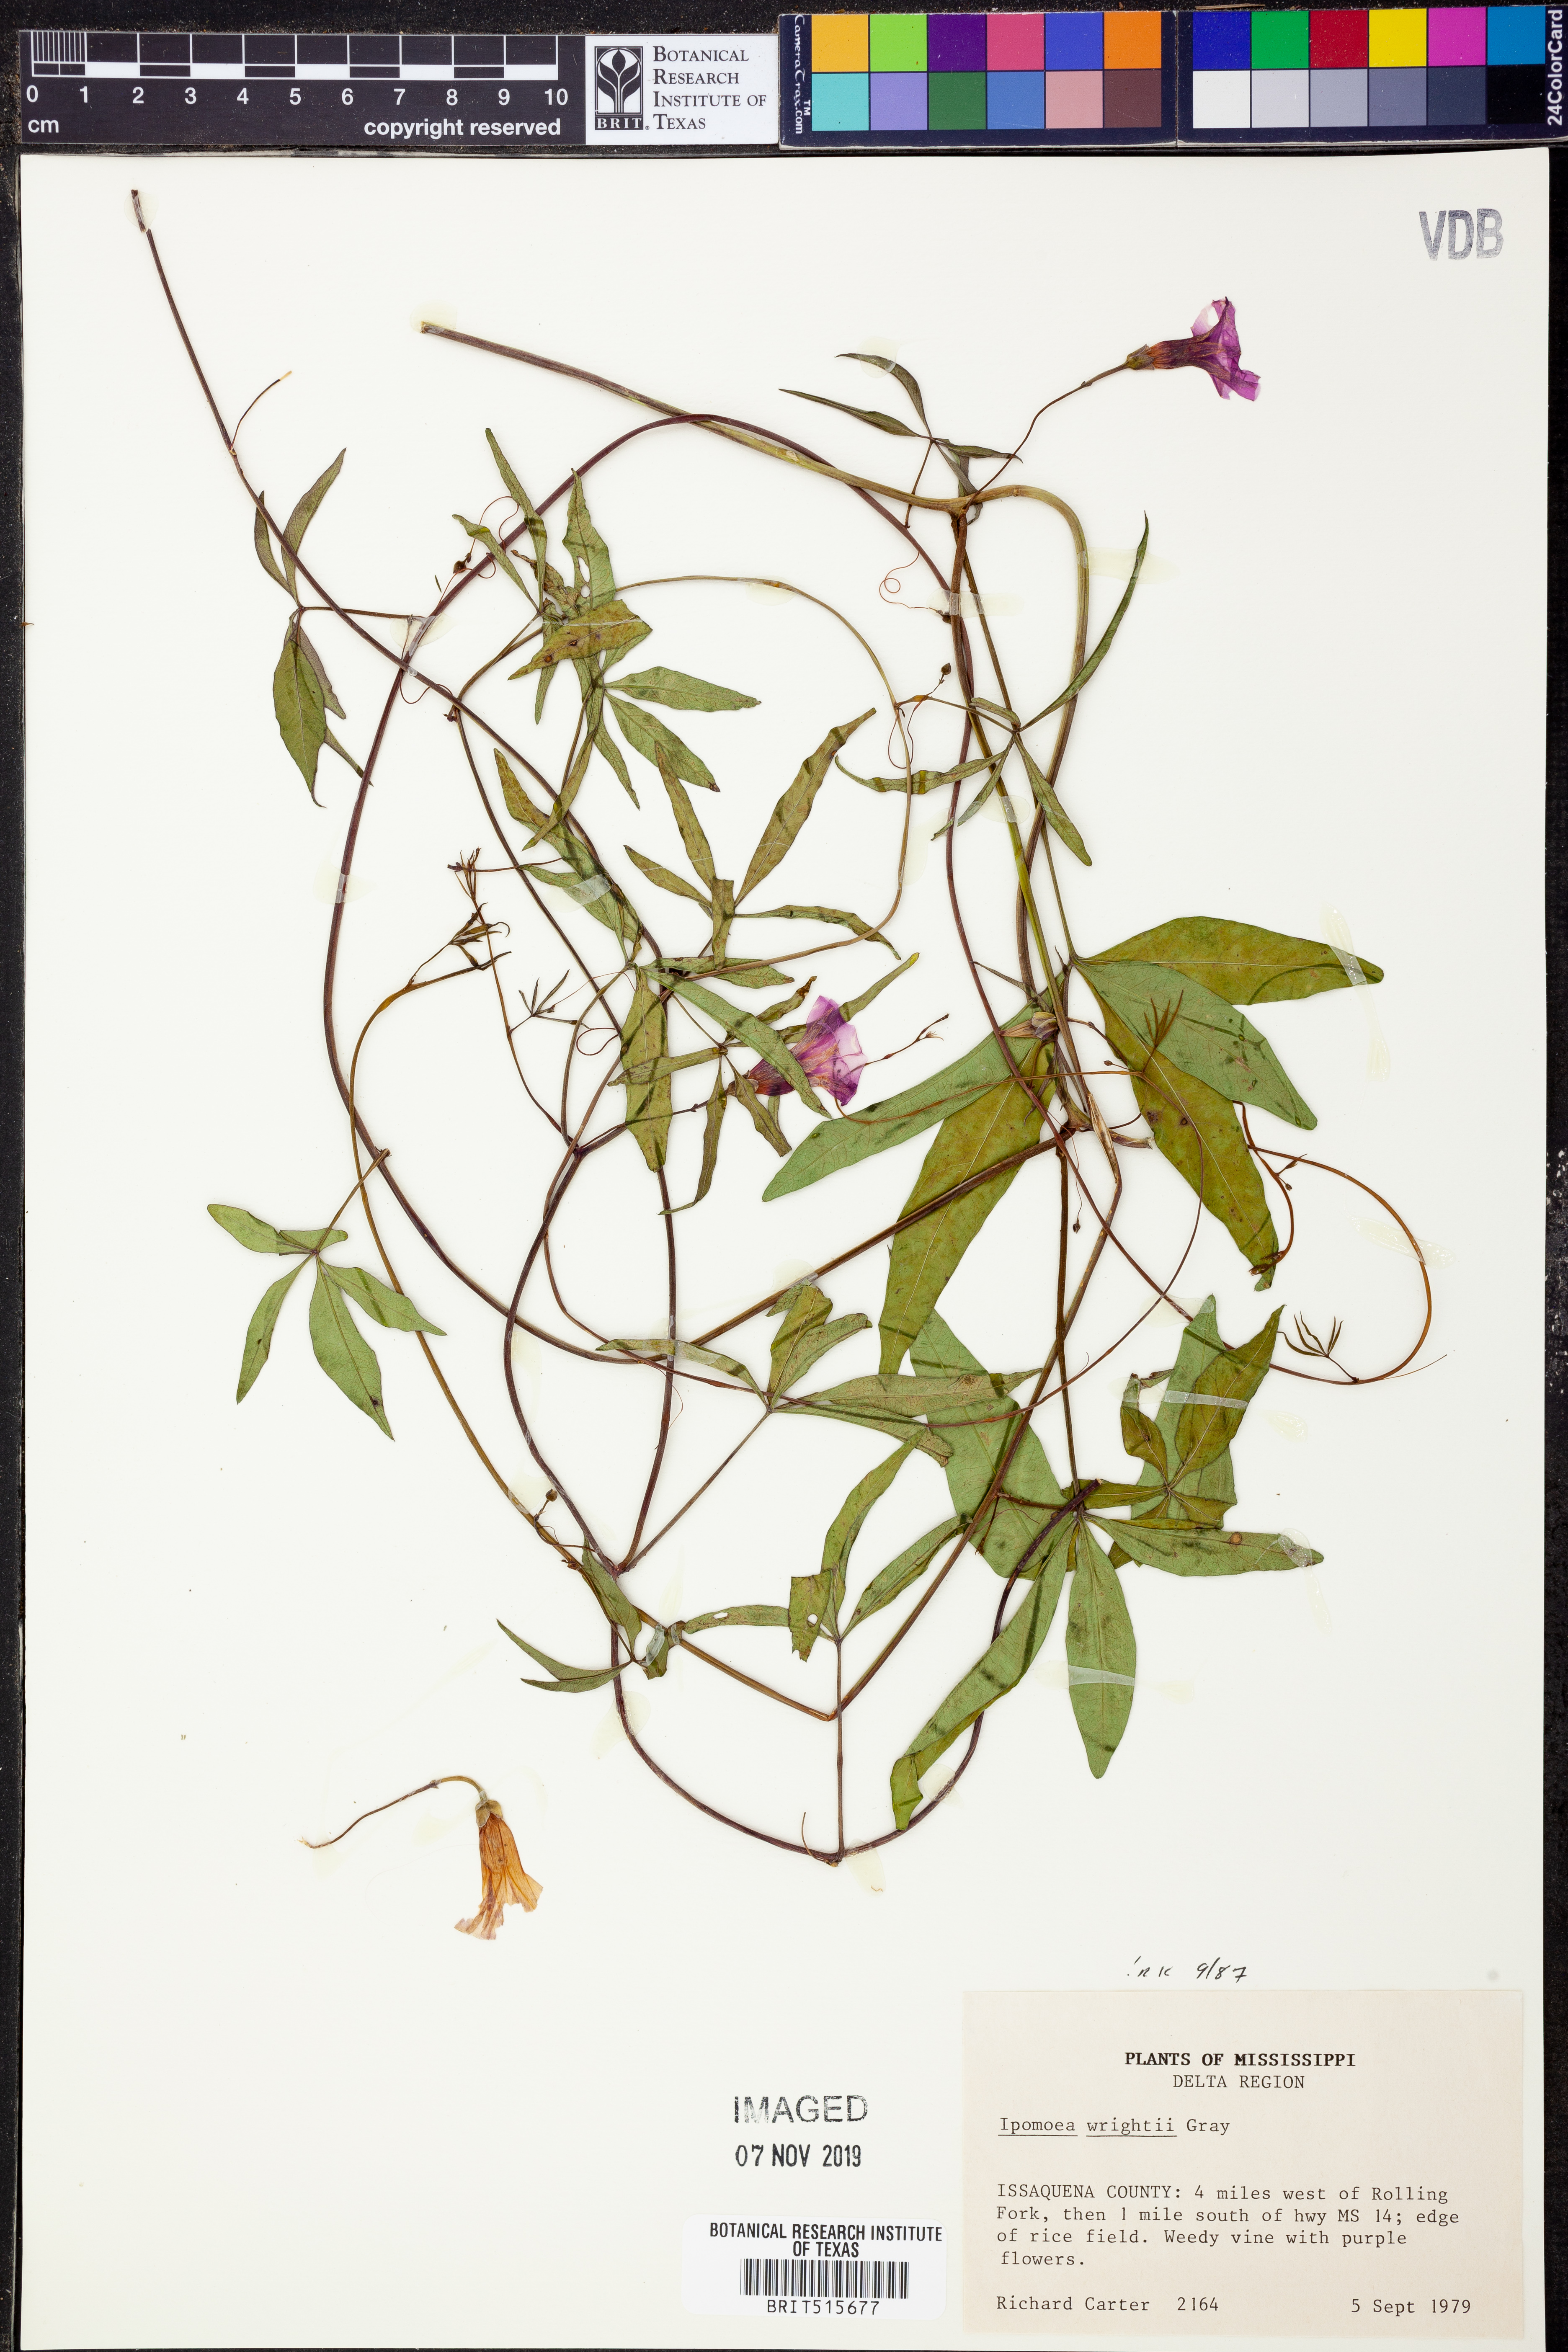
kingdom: Plantae
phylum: Tracheophyta
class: Magnoliopsida
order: Solanales
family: Convolvulaceae
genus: Ipomoea
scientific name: Ipomoea heptaphylla
